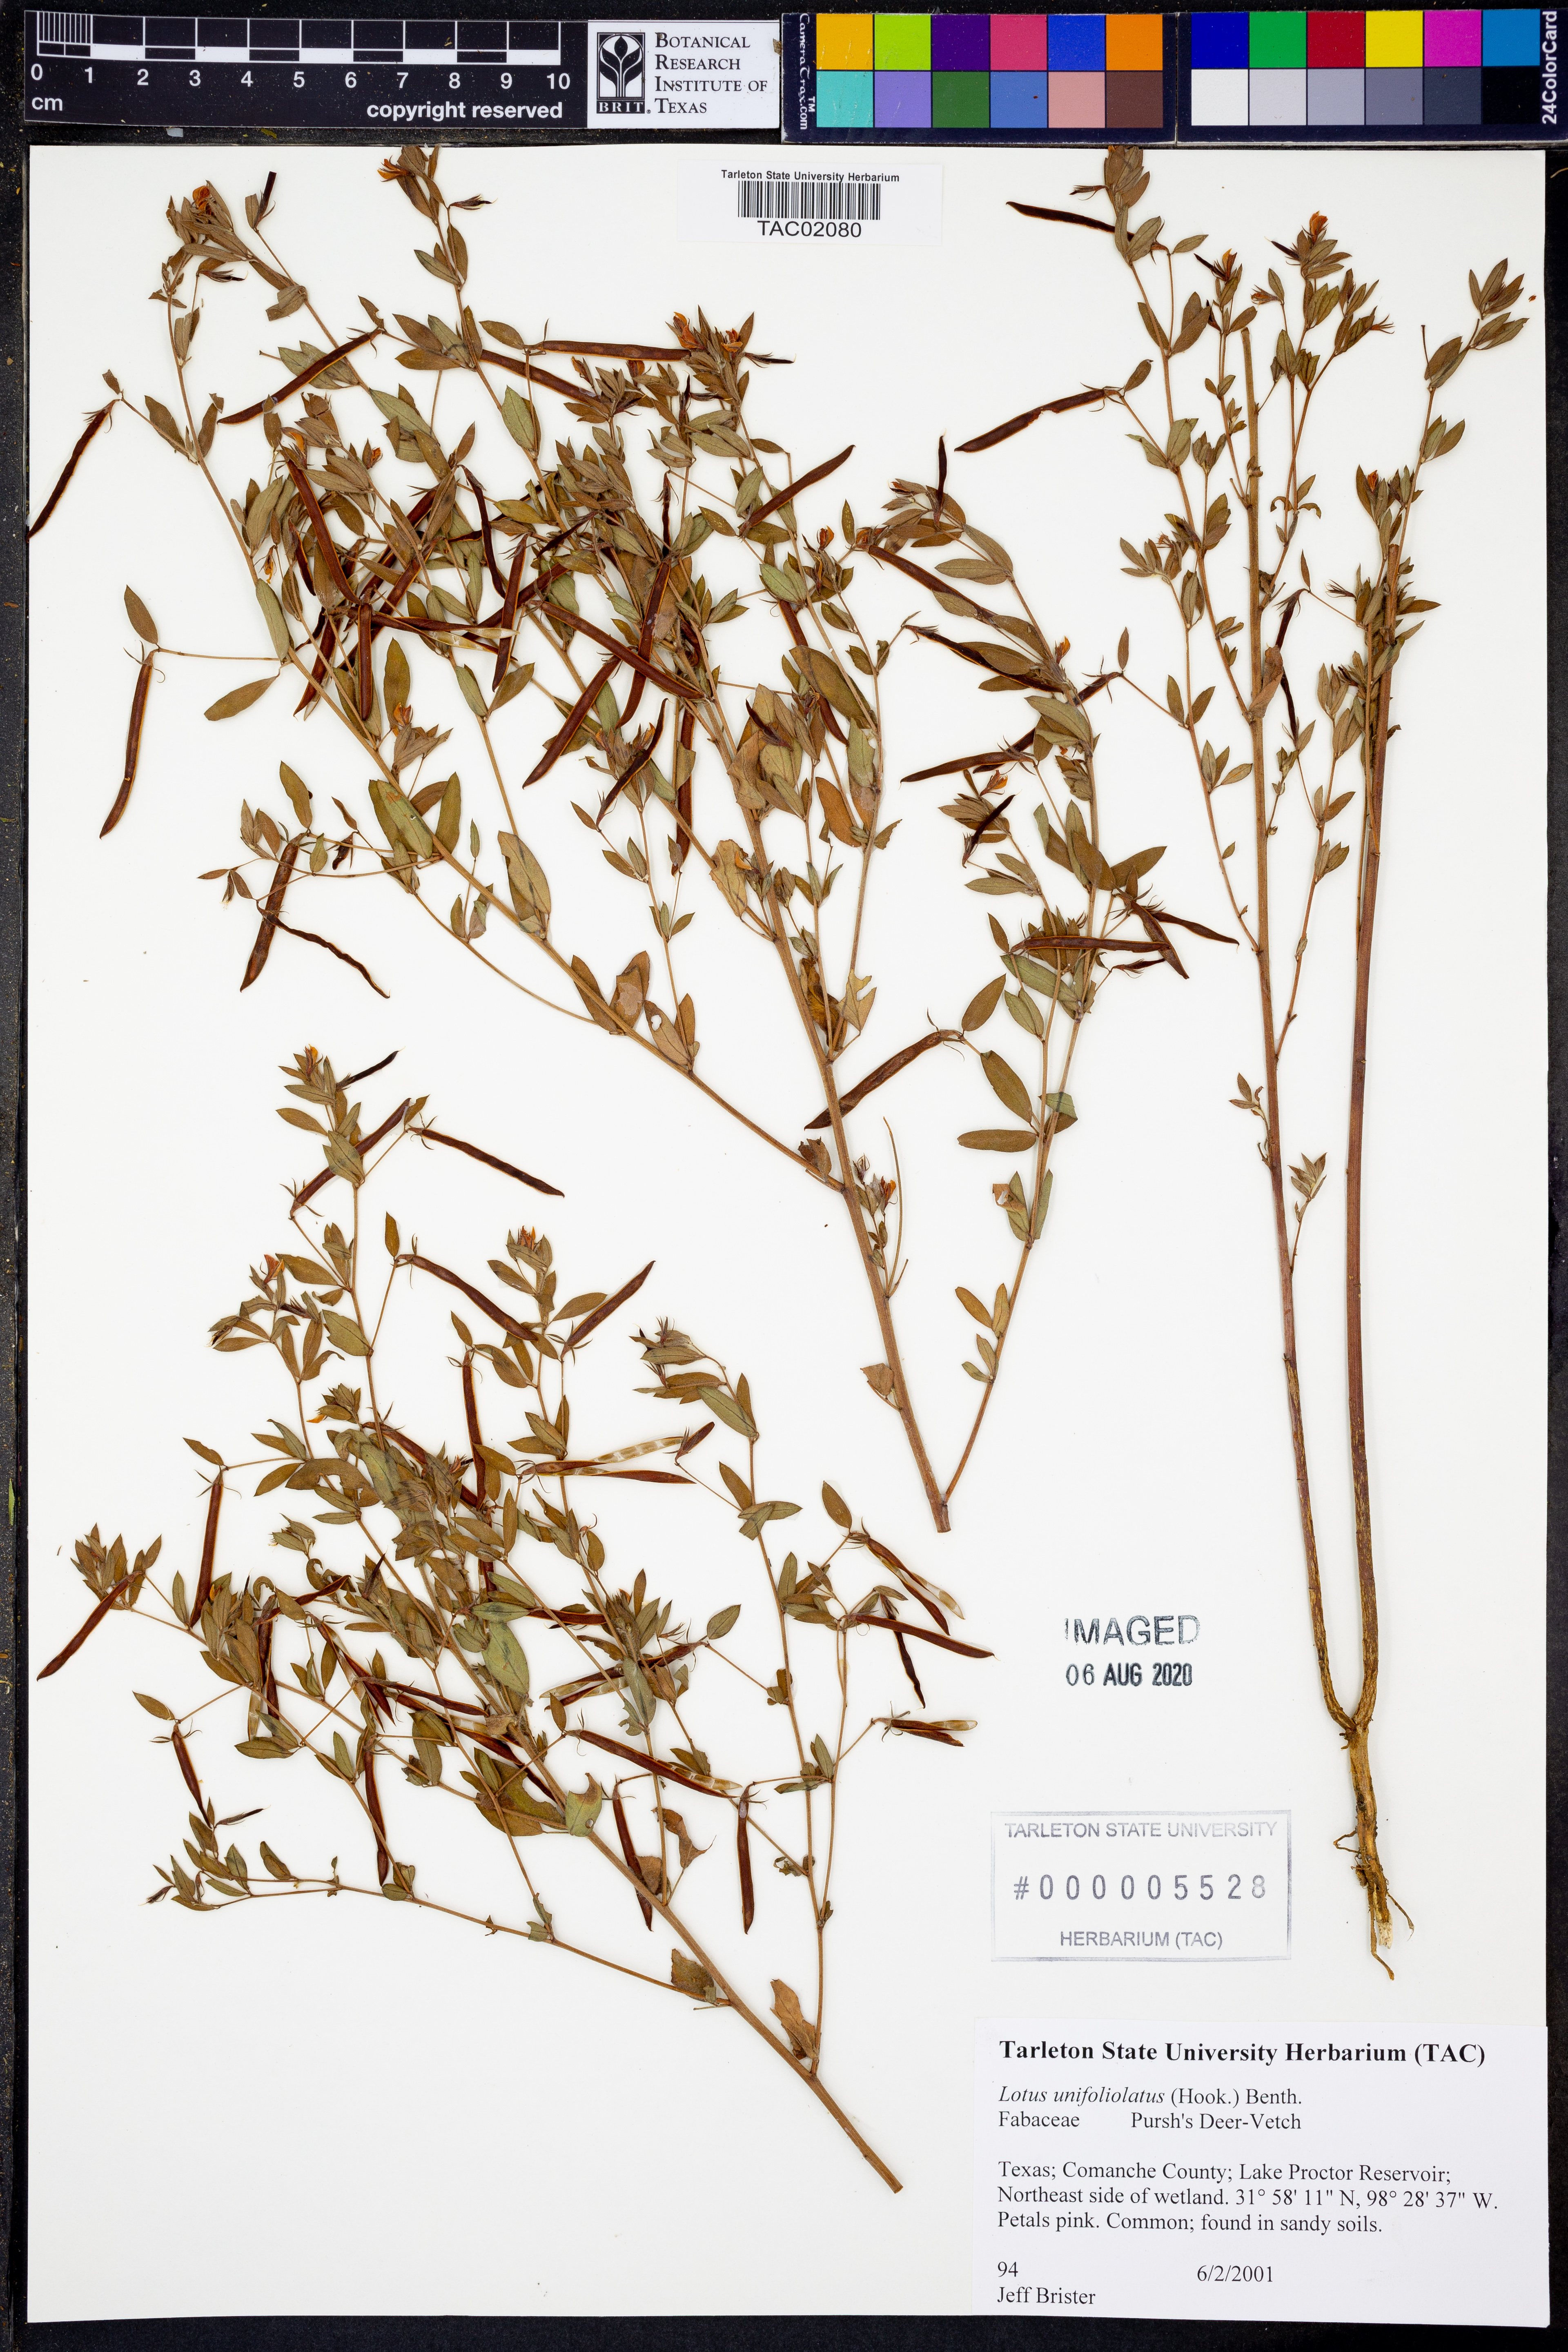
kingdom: Plantae
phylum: Tracheophyta
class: Magnoliopsida
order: Fabales
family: Fabaceae
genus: Acmispon
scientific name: Acmispon americanus
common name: American bird's-foot trefoil
